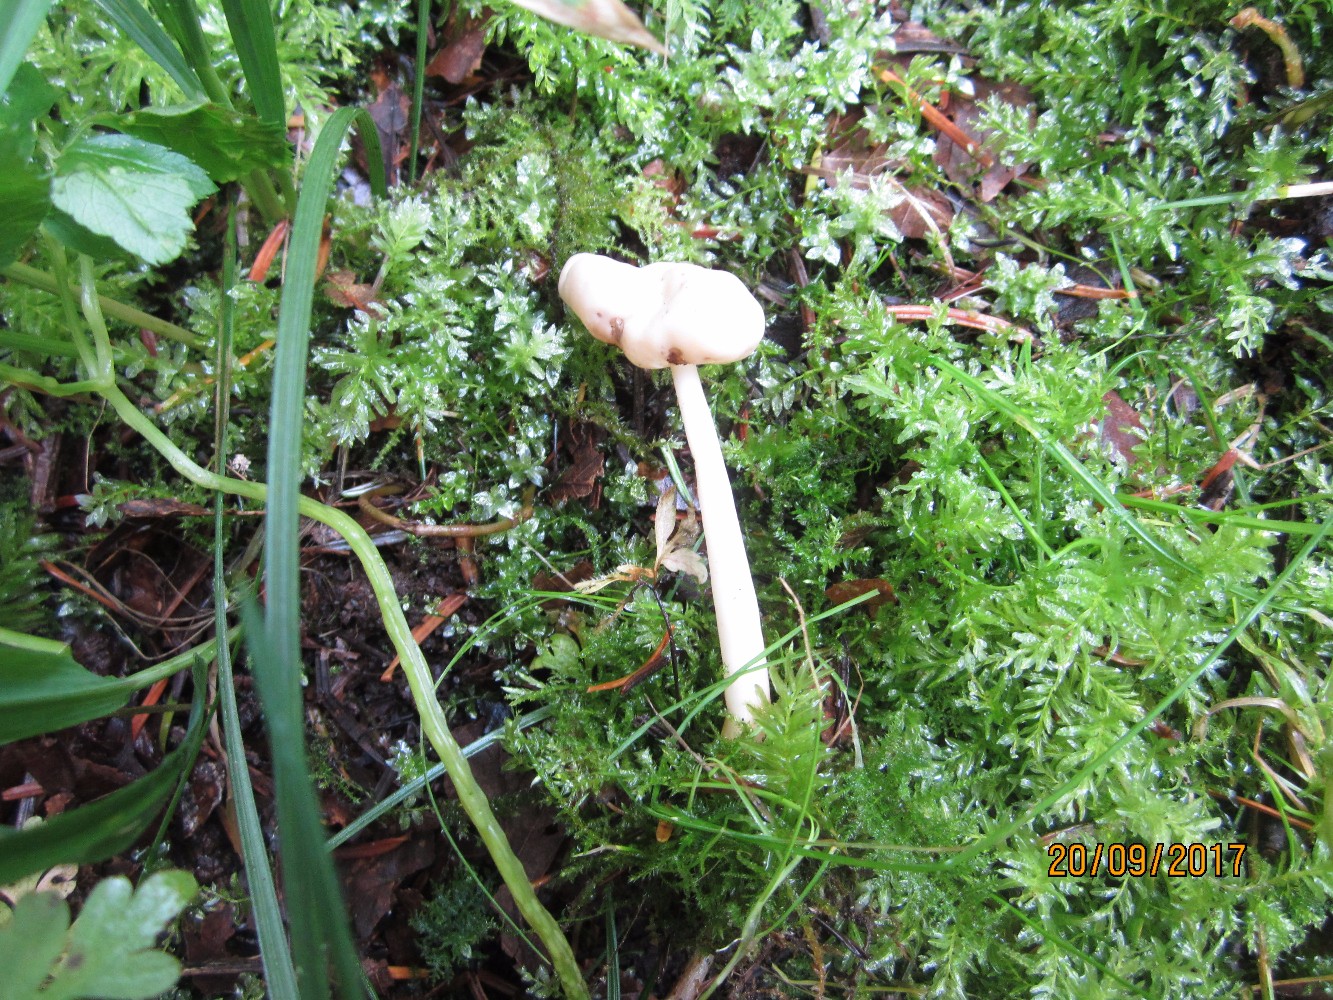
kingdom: Fungi
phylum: Ascomycota
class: Pezizomycetes
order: Pezizales
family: Helvellaceae
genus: Helvella
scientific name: Helvella elastica
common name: elastik-foldhat
